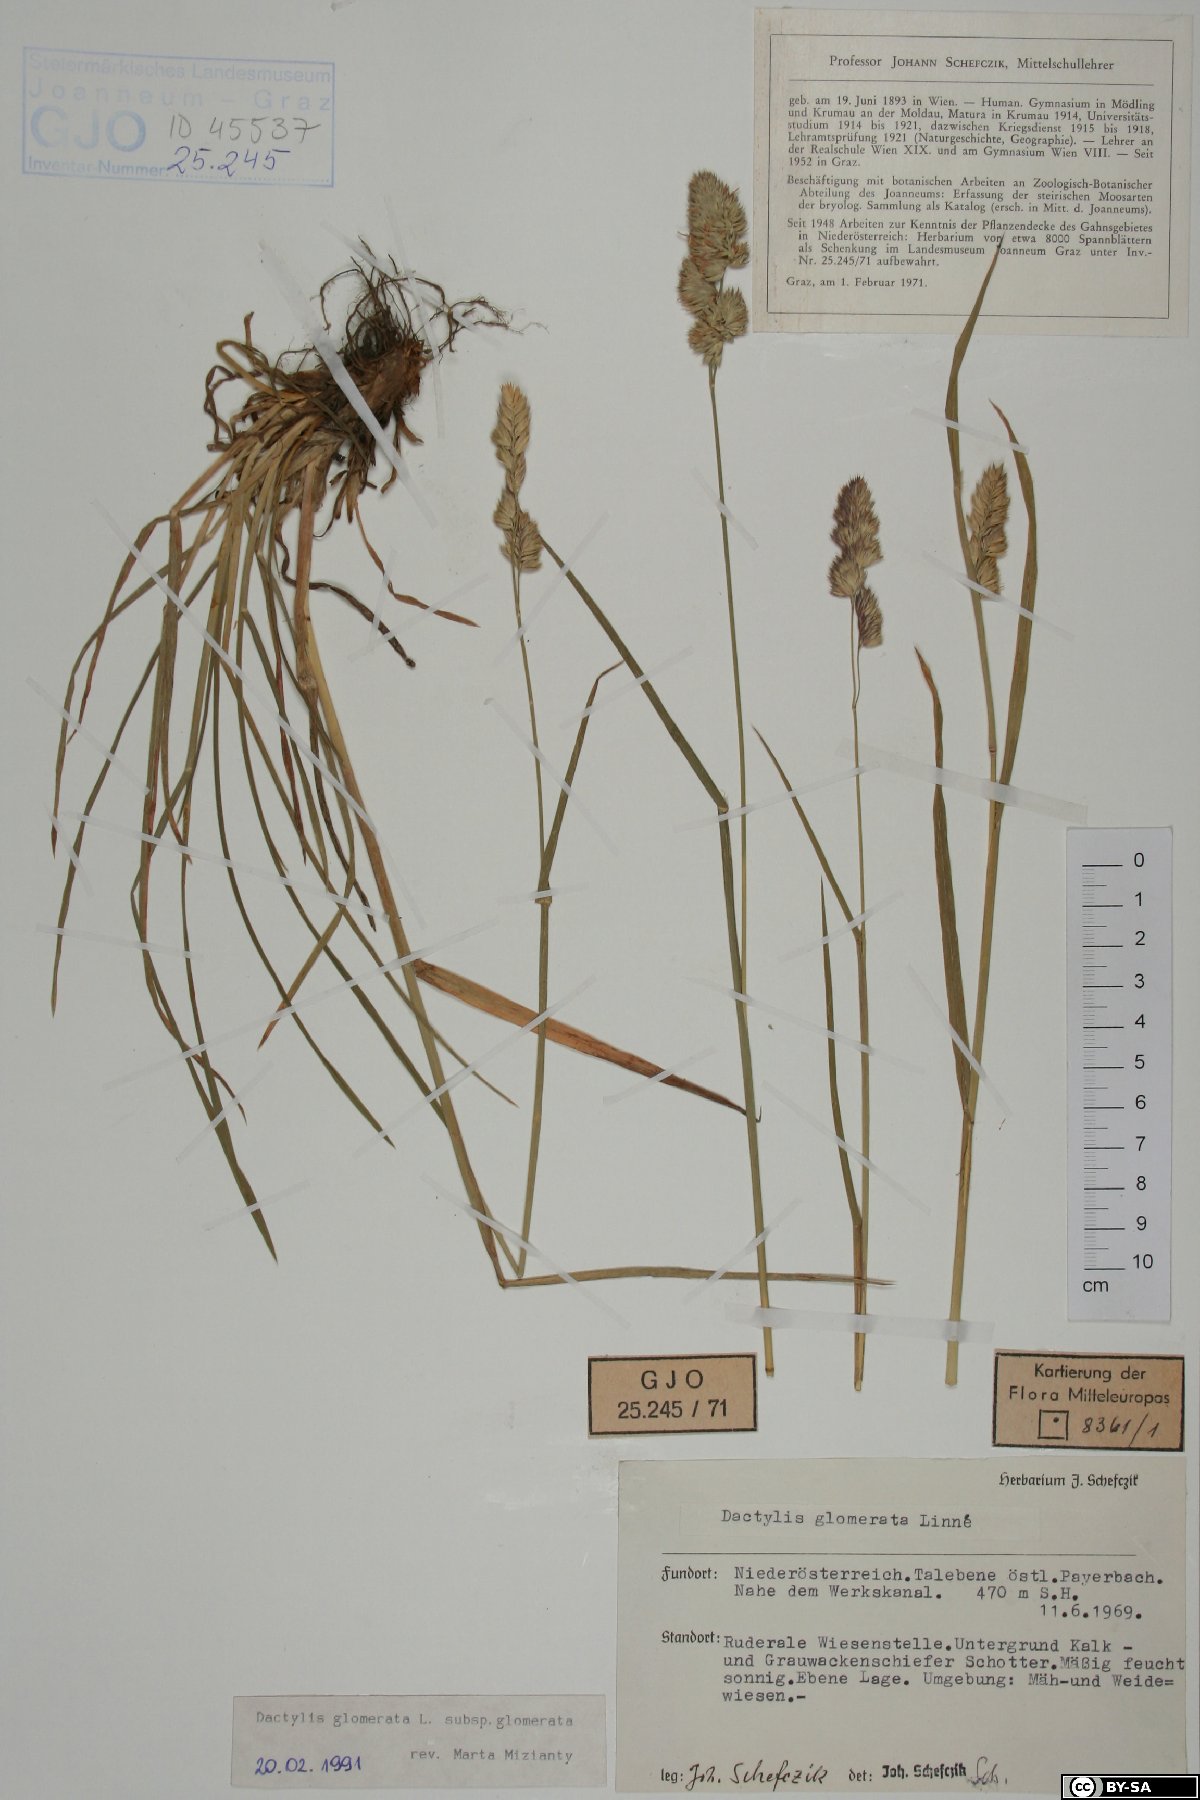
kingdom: Plantae
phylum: Tracheophyta
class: Liliopsida
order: Poales
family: Poaceae
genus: Dactylis
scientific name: Dactylis glomerata
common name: Orchardgrass
